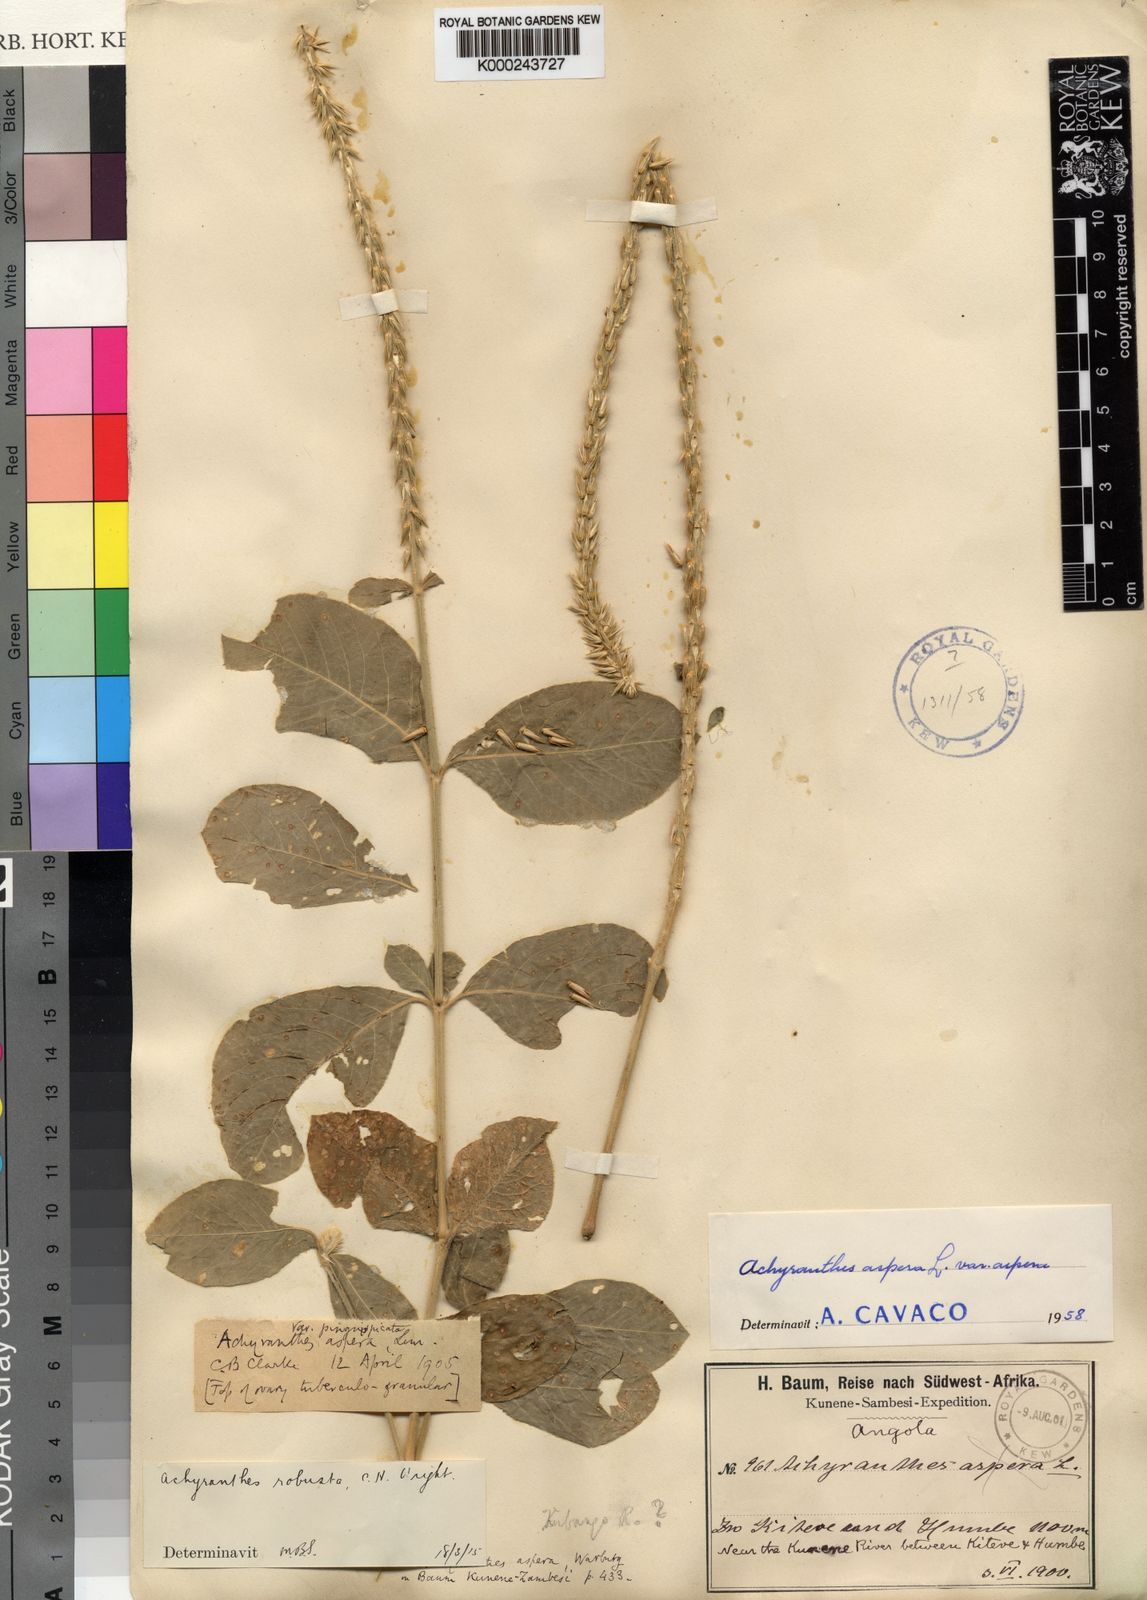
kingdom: Plantae
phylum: Tracheophyta
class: Magnoliopsida
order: Caryophyllales
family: Amaranthaceae
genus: Achyranthes
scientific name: Achyranthes aspera
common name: Devil's horsewhip
